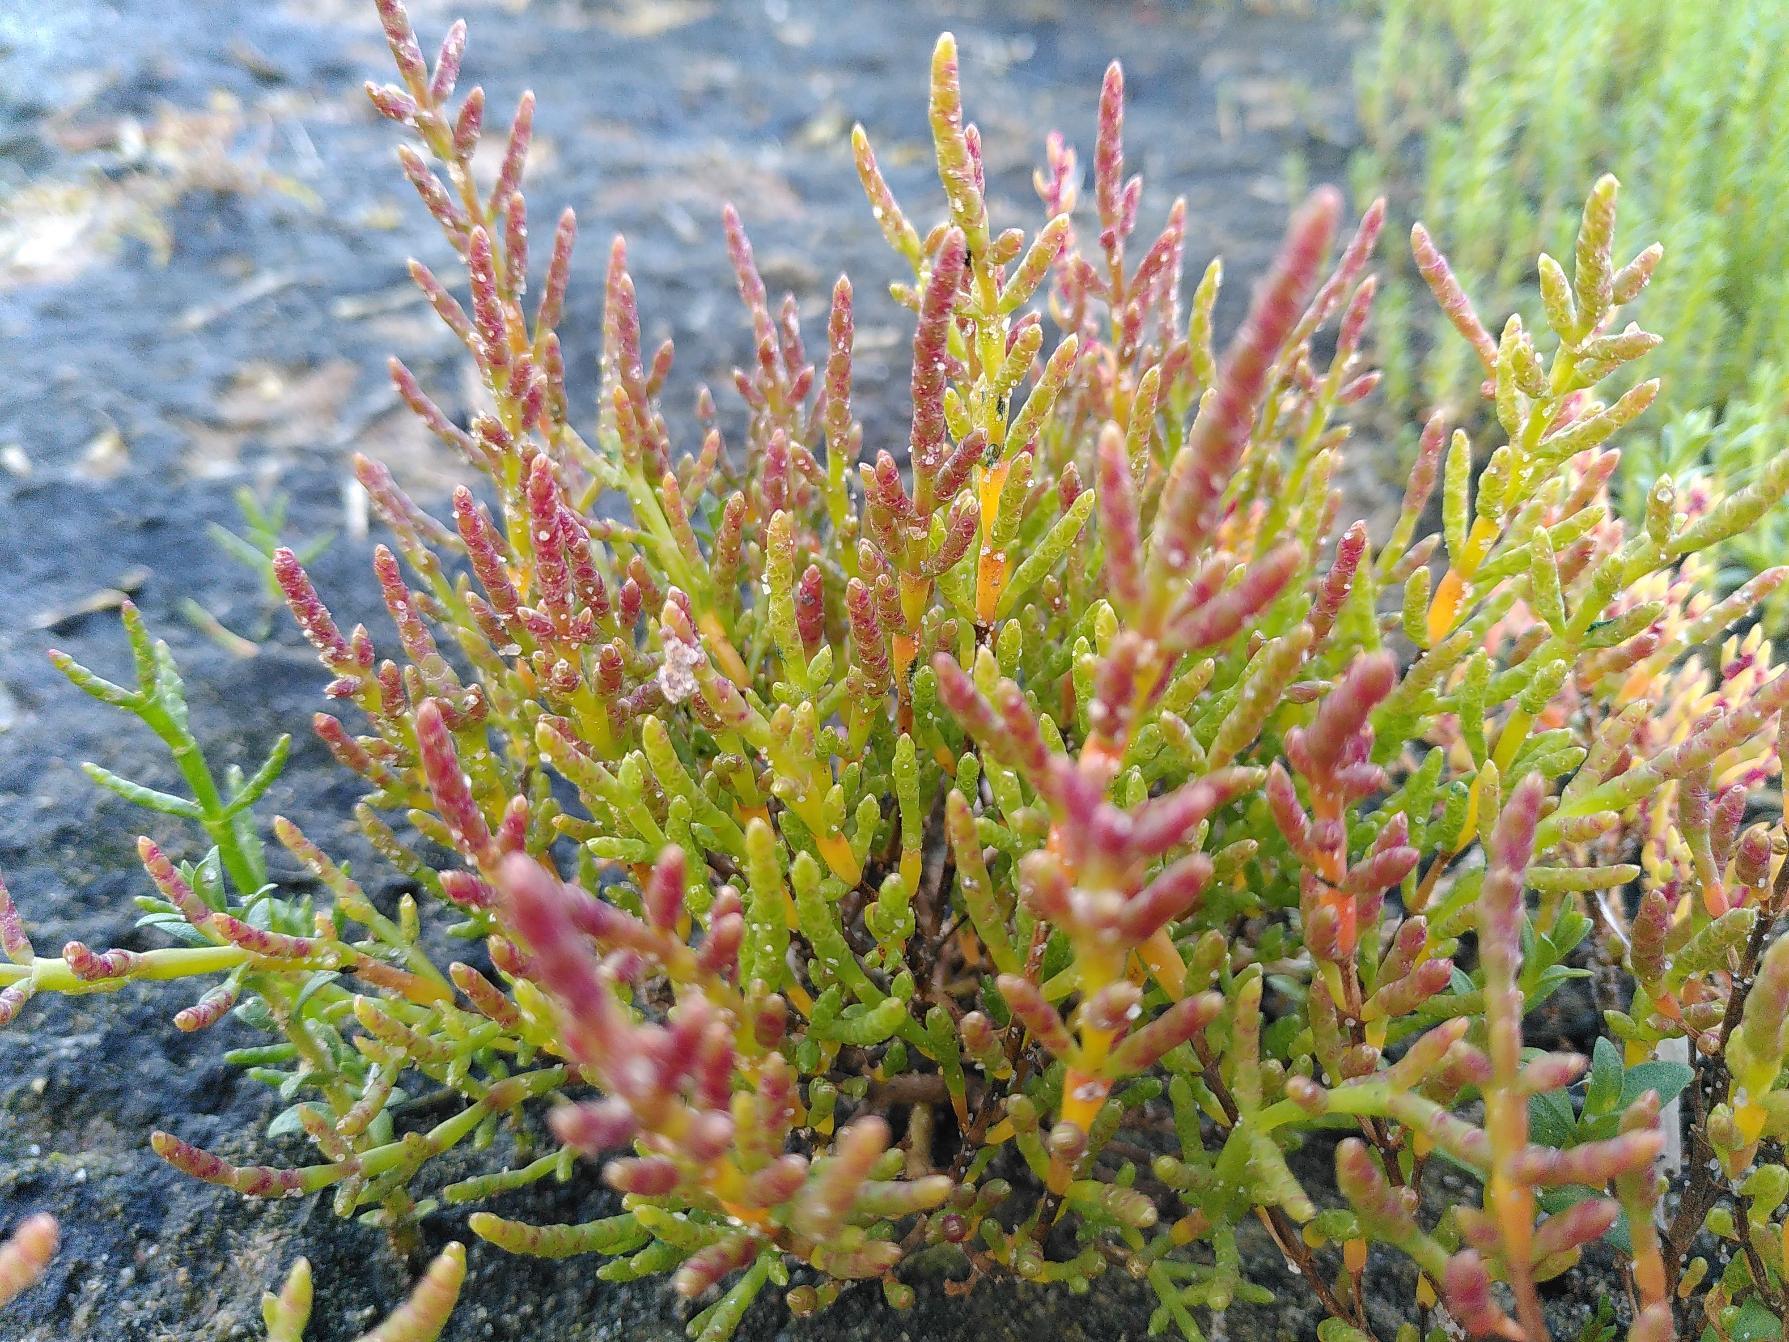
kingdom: Plantae
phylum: Tracheophyta
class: Magnoliopsida
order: Caryophyllales
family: Amaranthaceae
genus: Salicornia
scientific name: Salicornia europaea
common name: Almindelig salturt
